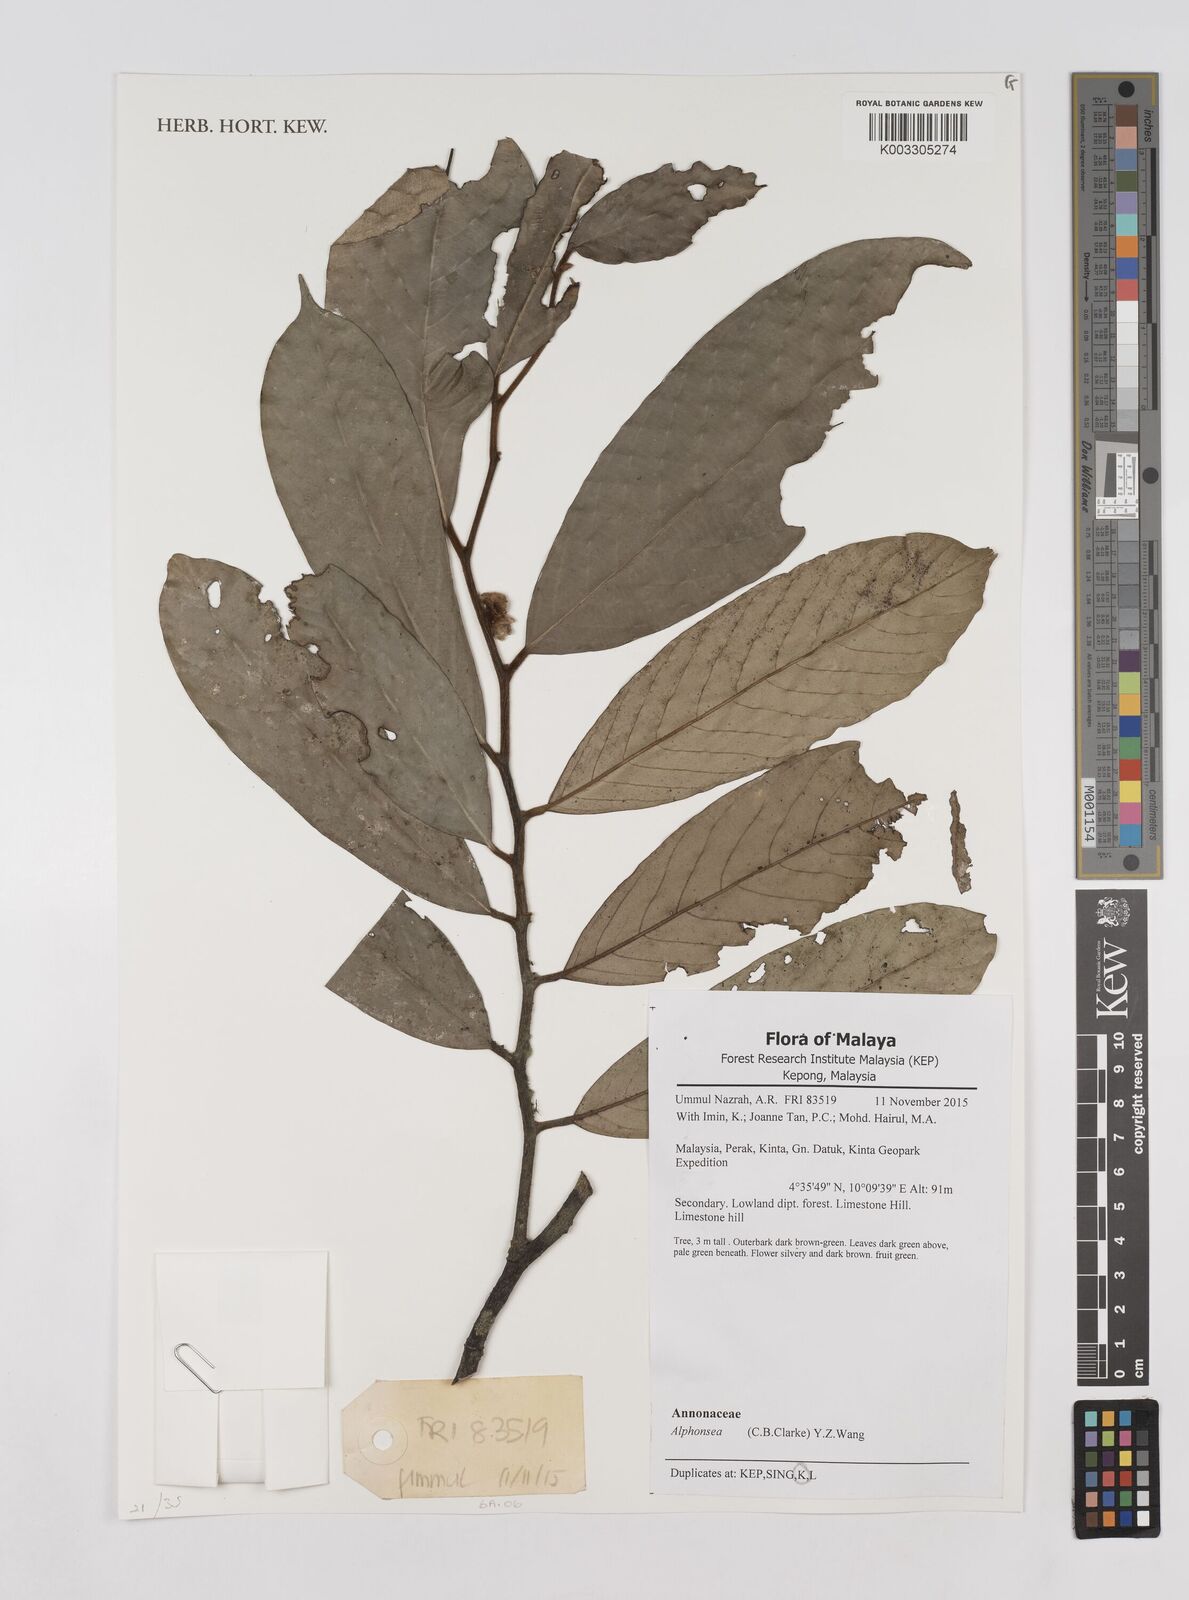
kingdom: Plantae
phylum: Tracheophyta
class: Magnoliopsida
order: Magnoliales
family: Annonaceae
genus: Alphonsea
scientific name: Alphonsea
